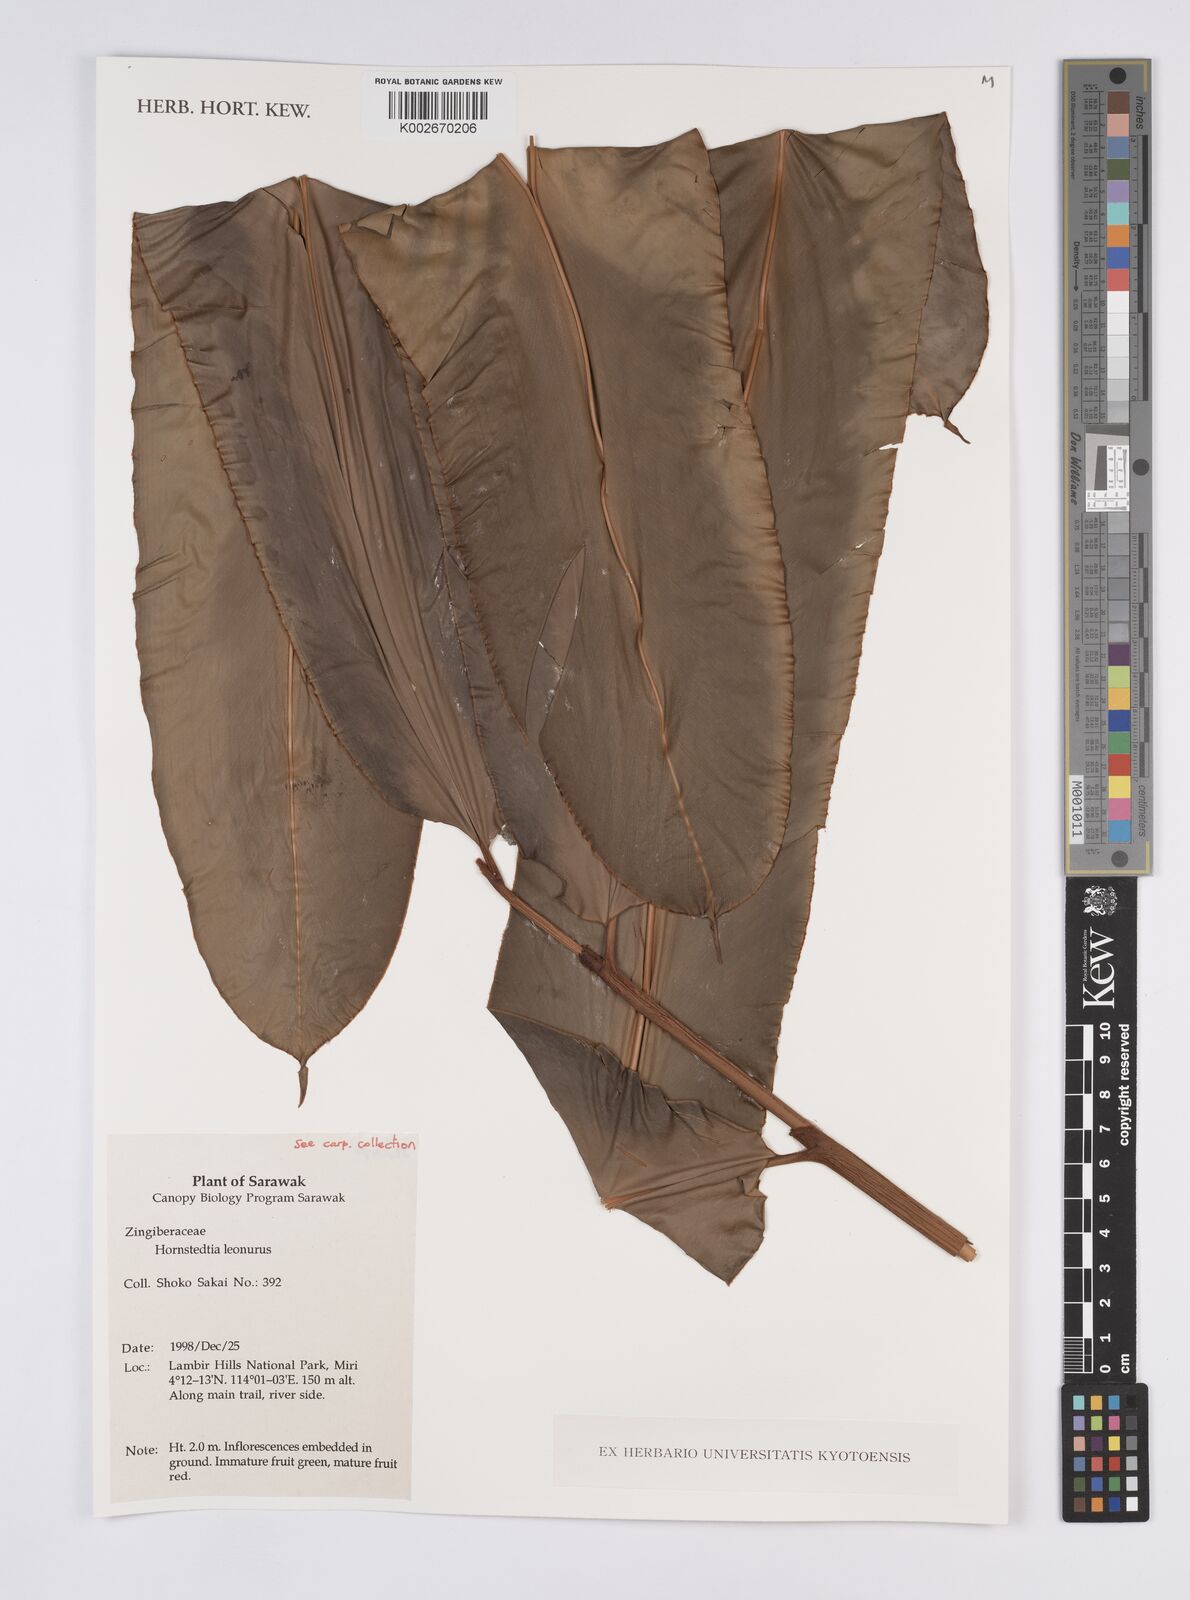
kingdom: Plantae
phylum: Tracheophyta
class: Liliopsida
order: Zingiberales
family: Zingiberaceae
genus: Hornstedtia
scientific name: Hornstedtia leonurus
